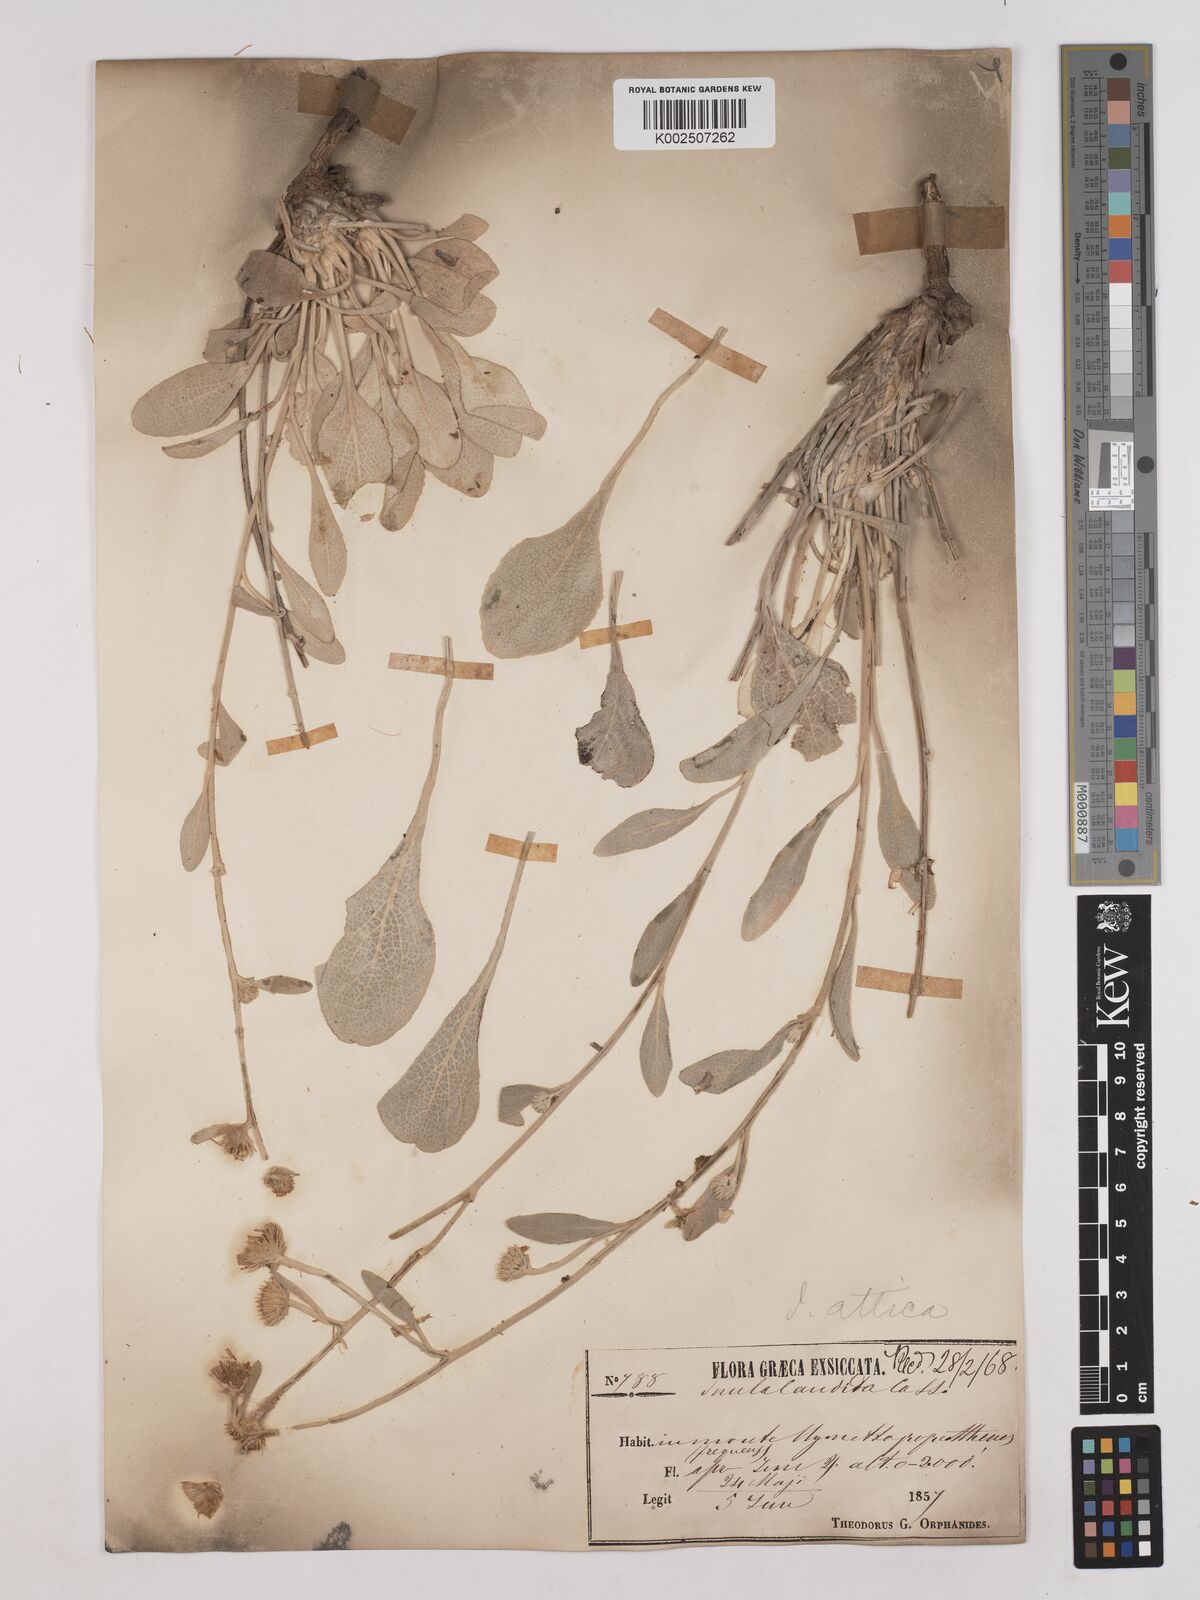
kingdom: Plantae
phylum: Tracheophyta
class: Magnoliopsida
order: Asterales
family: Asteraceae
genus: Pentanema
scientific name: Pentanema verbascifolium
